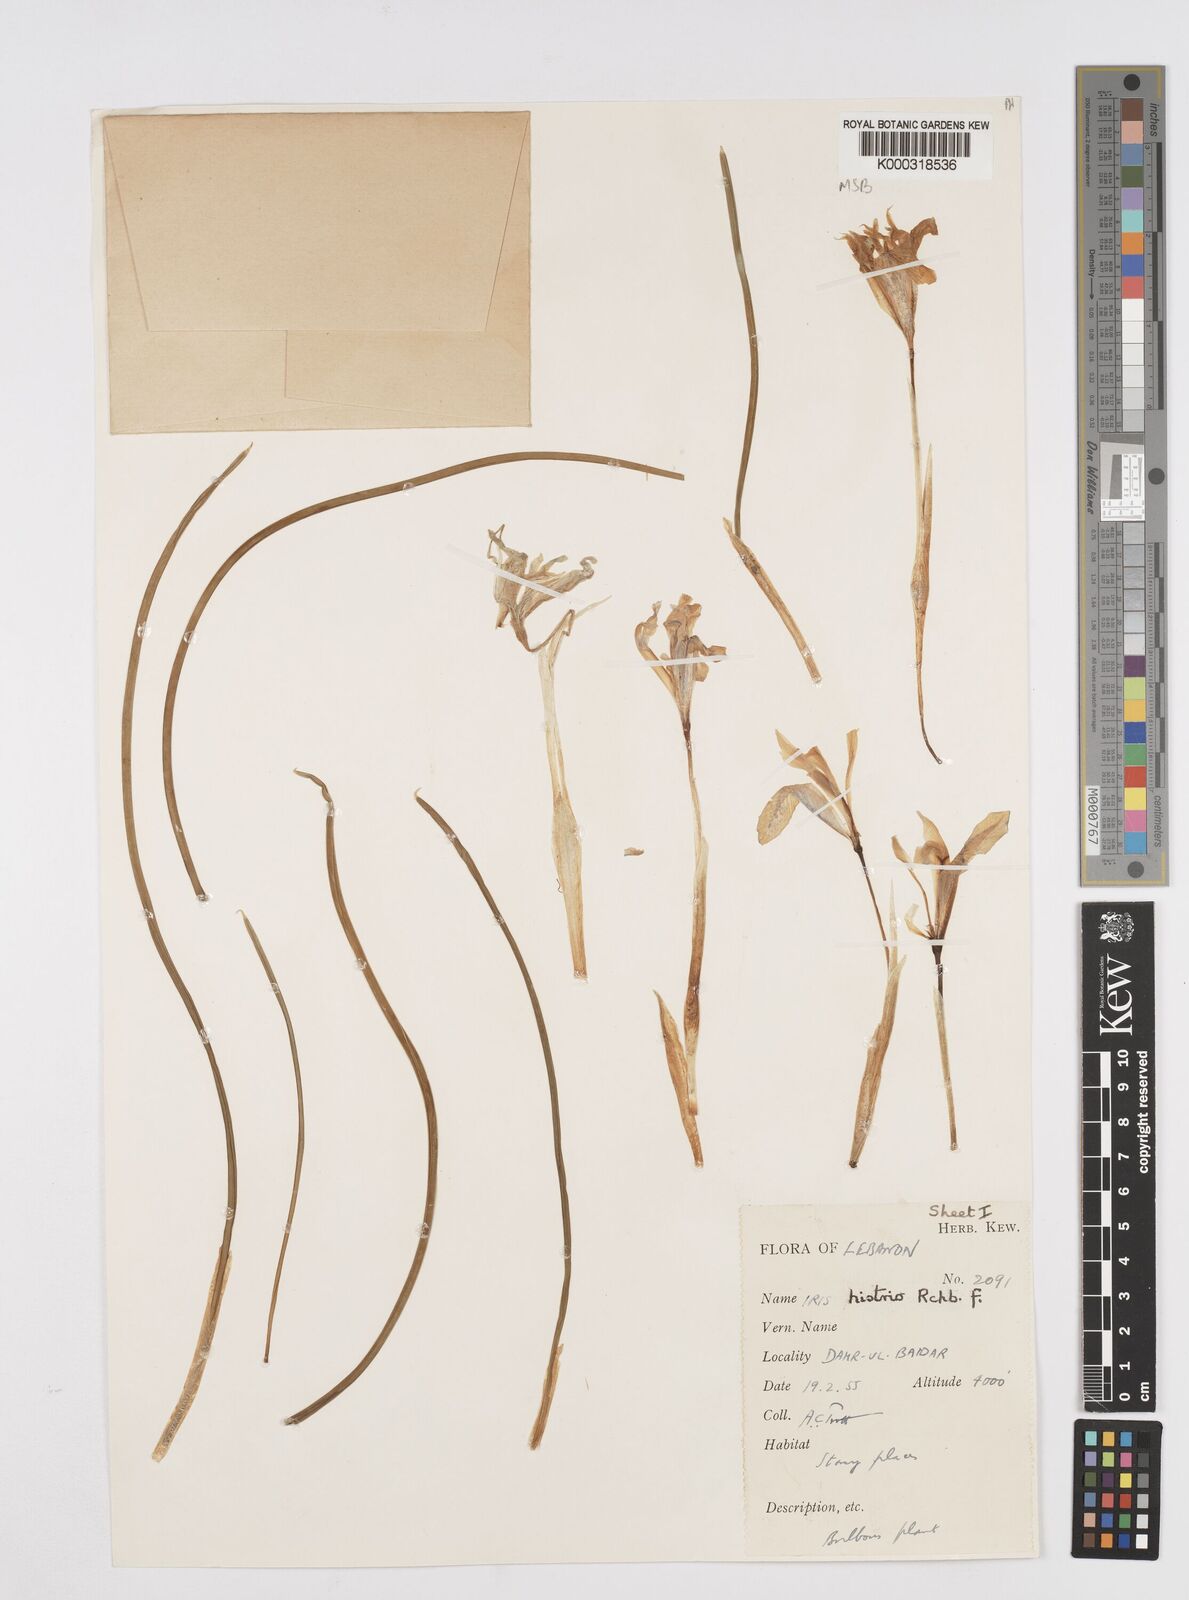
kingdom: Plantae
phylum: Tracheophyta
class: Liliopsida
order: Asparagales
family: Iridaceae
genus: Iris
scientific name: Iris histrio
